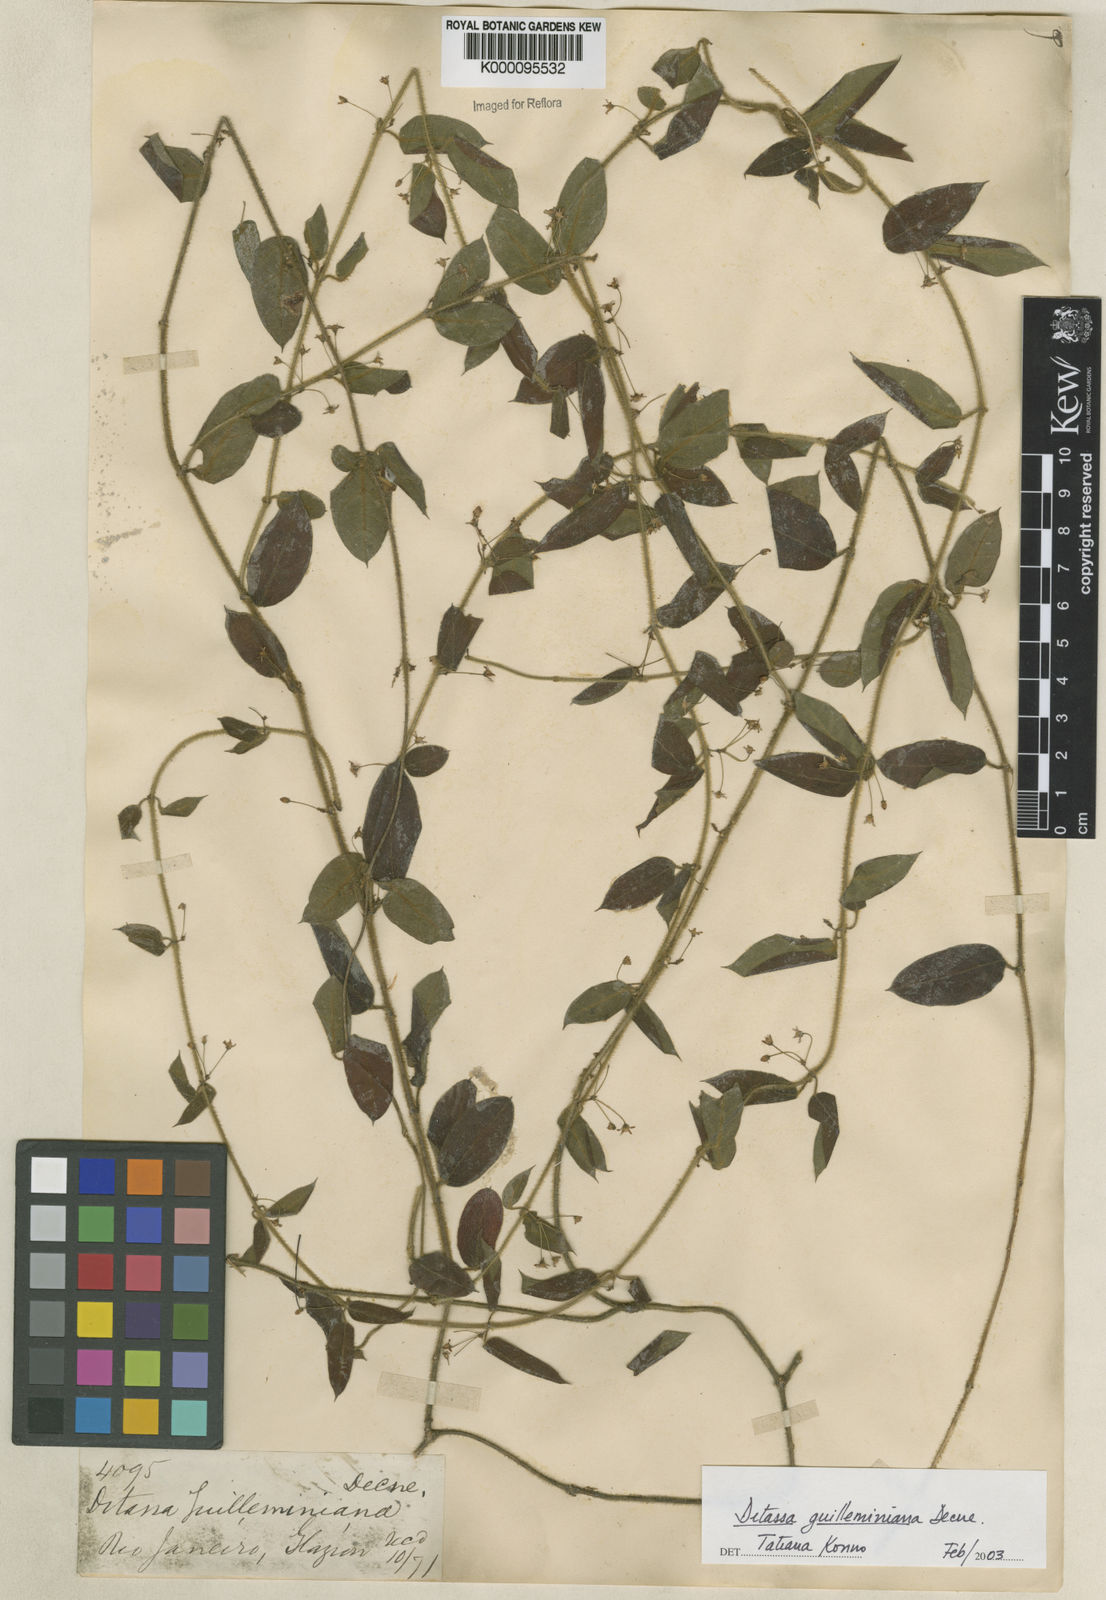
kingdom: Plantae
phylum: Tracheophyta
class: Magnoliopsida
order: Gentianales
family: Apocynaceae
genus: Ditassa
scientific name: Ditassa hispida
